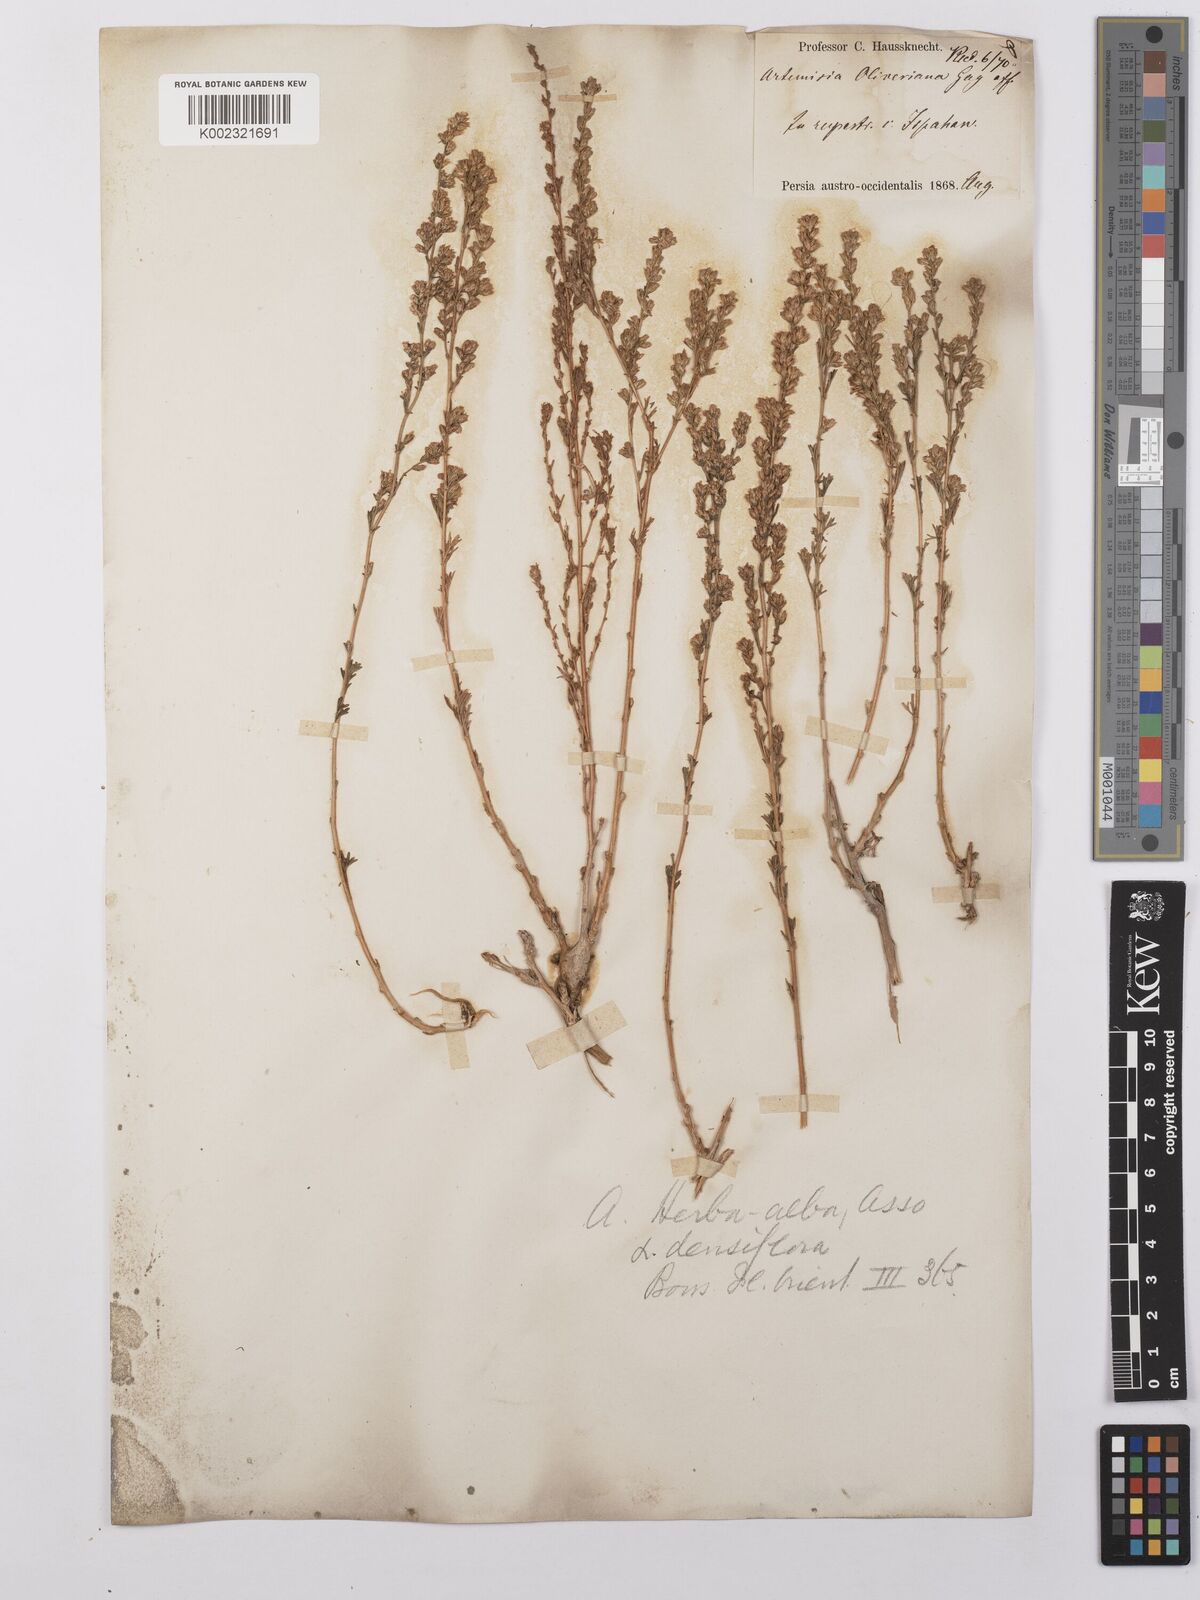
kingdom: Plantae
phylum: Tracheophyta
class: Magnoliopsida
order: Asterales
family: Asteraceae
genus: Artemisia
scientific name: Artemisia herba-alba
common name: White wormwood
